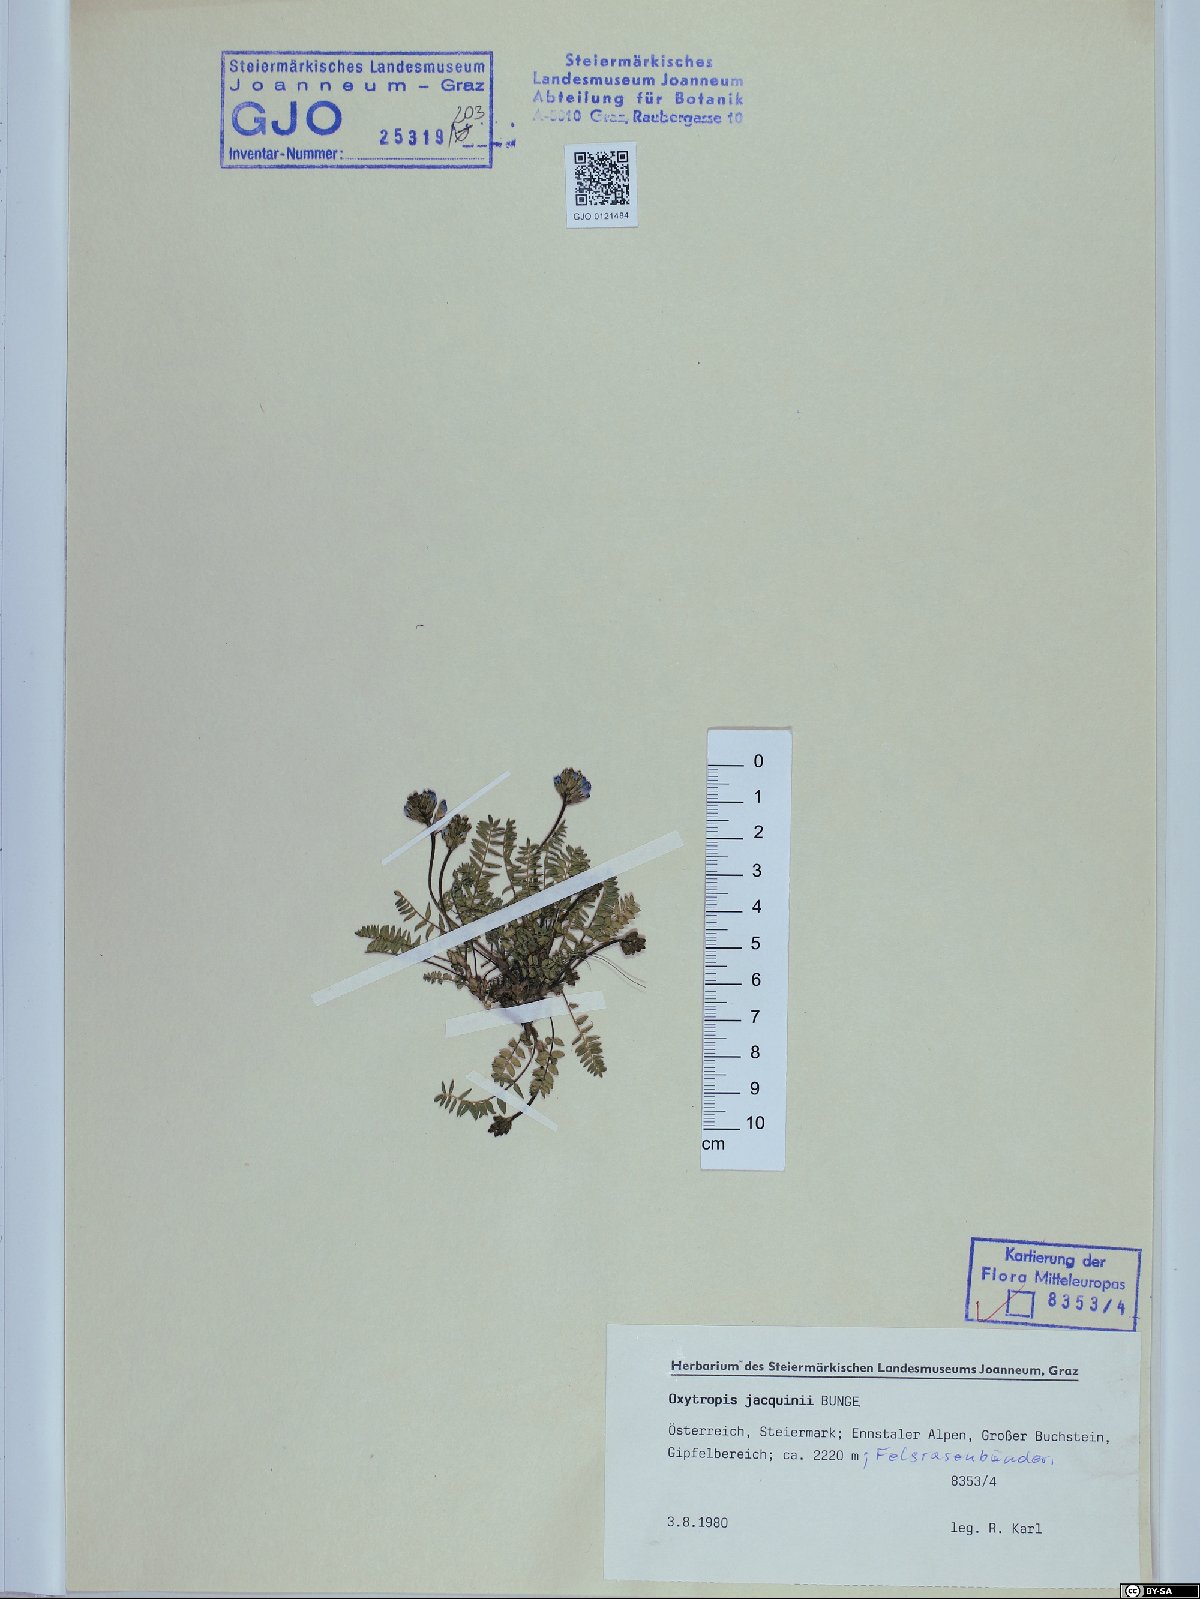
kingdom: Plantae
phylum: Tracheophyta
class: Magnoliopsida
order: Fabales
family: Fabaceae
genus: Oxytropis
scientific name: Oxytropis montana
